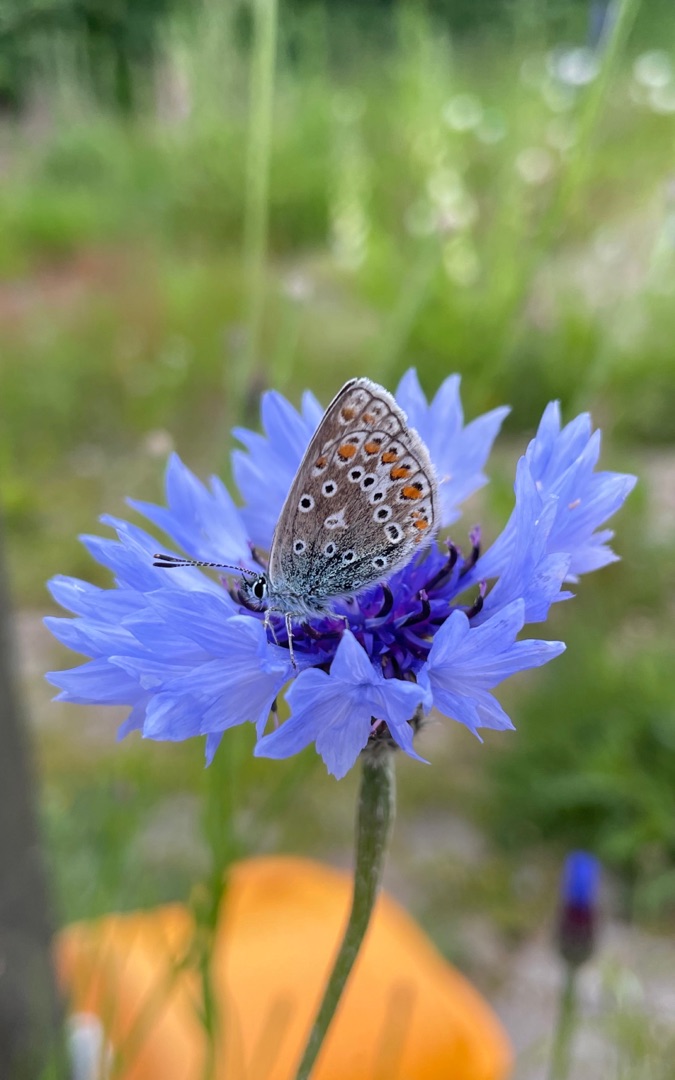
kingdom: Animalia
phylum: Arthropoda
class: Insecta
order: Lepidoptera
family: Lycaenidae
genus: Polyommatus
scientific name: Polyommatus icarus
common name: Almindelig blåfugl
